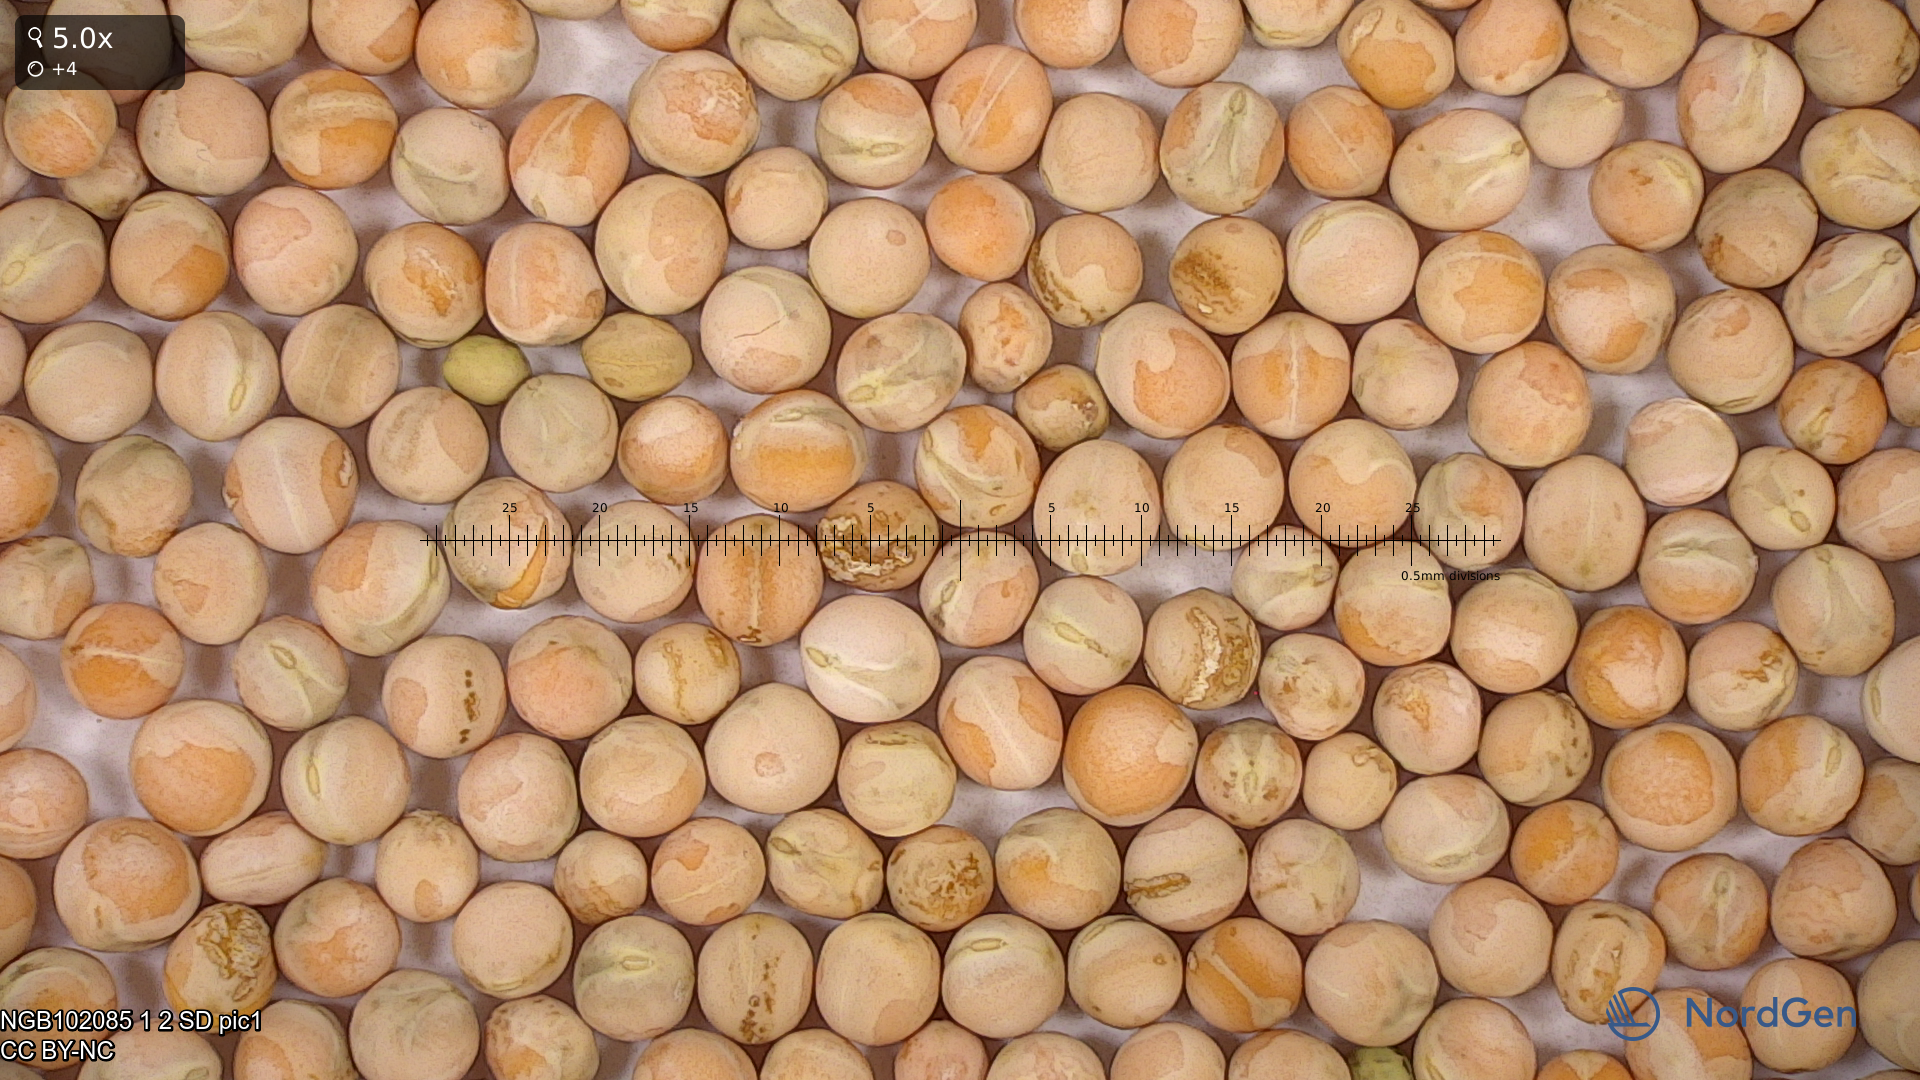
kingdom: Plantae
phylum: Tracheophyta
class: Magnoliopsida
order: Fabales
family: Fabaceae
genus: Lathyrus
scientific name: Lathyrus oleraceus
